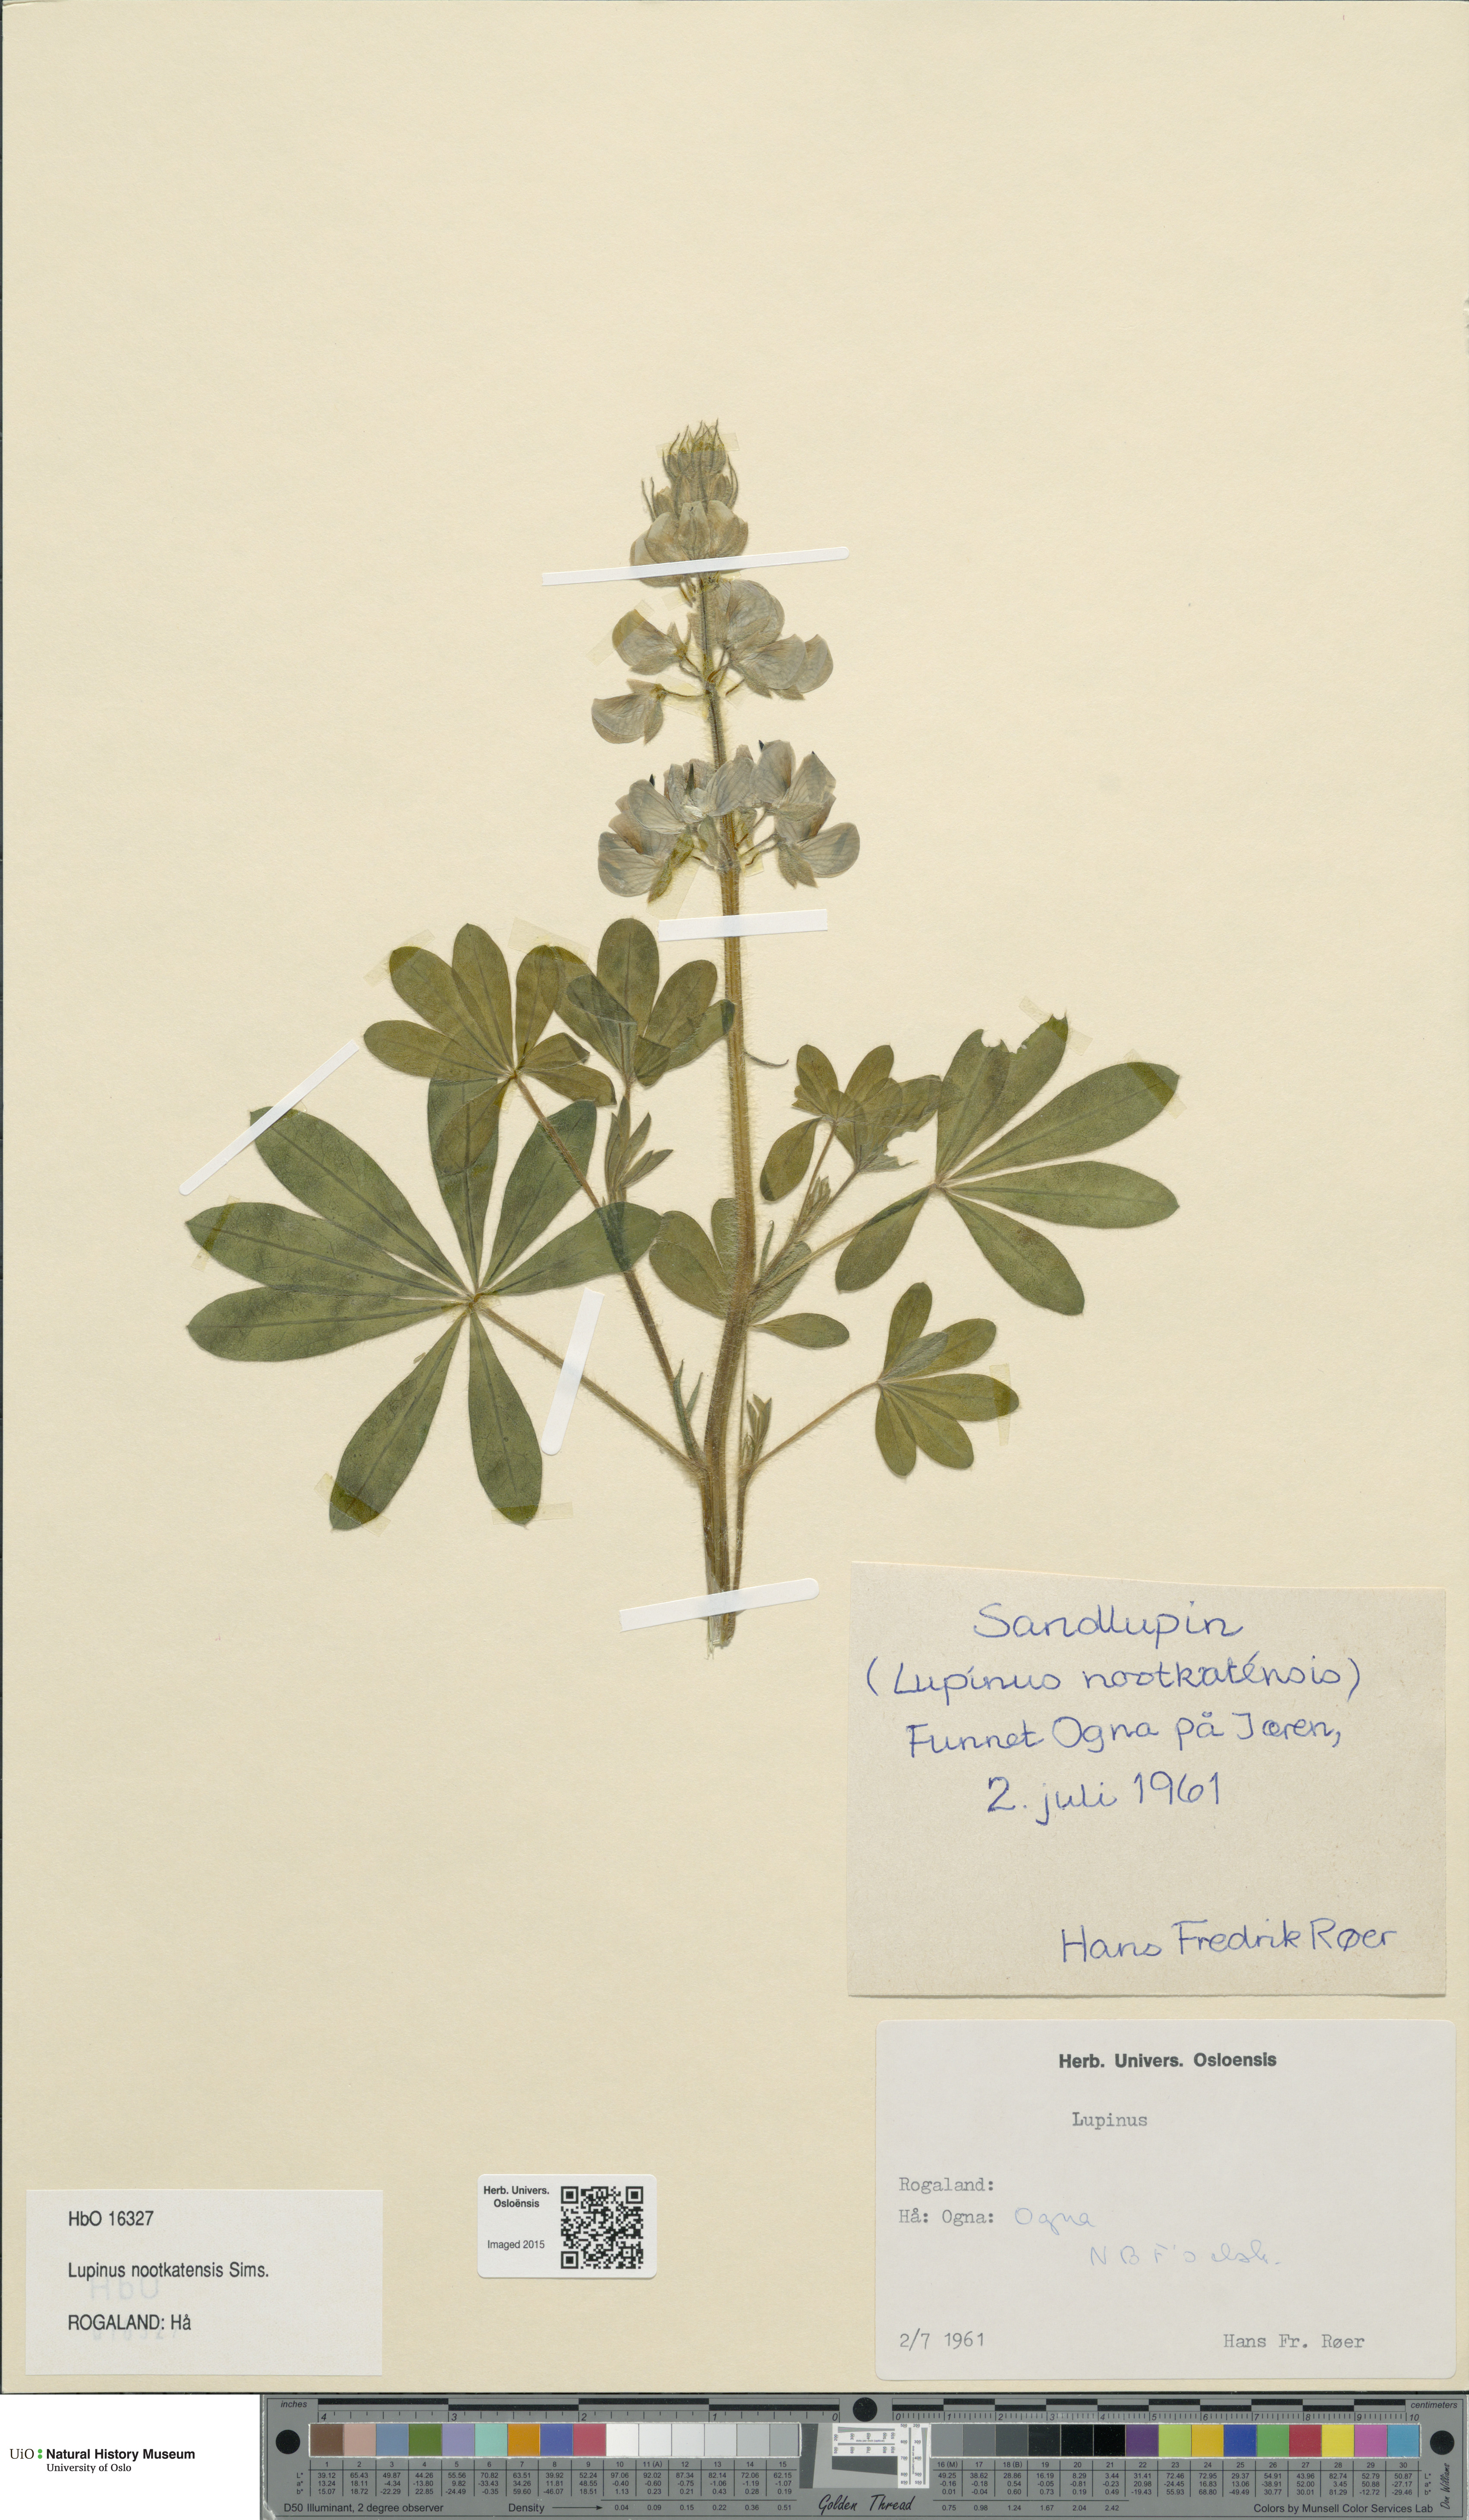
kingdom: Plantae
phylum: Tracheophyta
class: Magnoliopsida
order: Fabales
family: Fabaceae
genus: Lupinus
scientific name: Lupinus nootkatensis
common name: Nootka lupine
